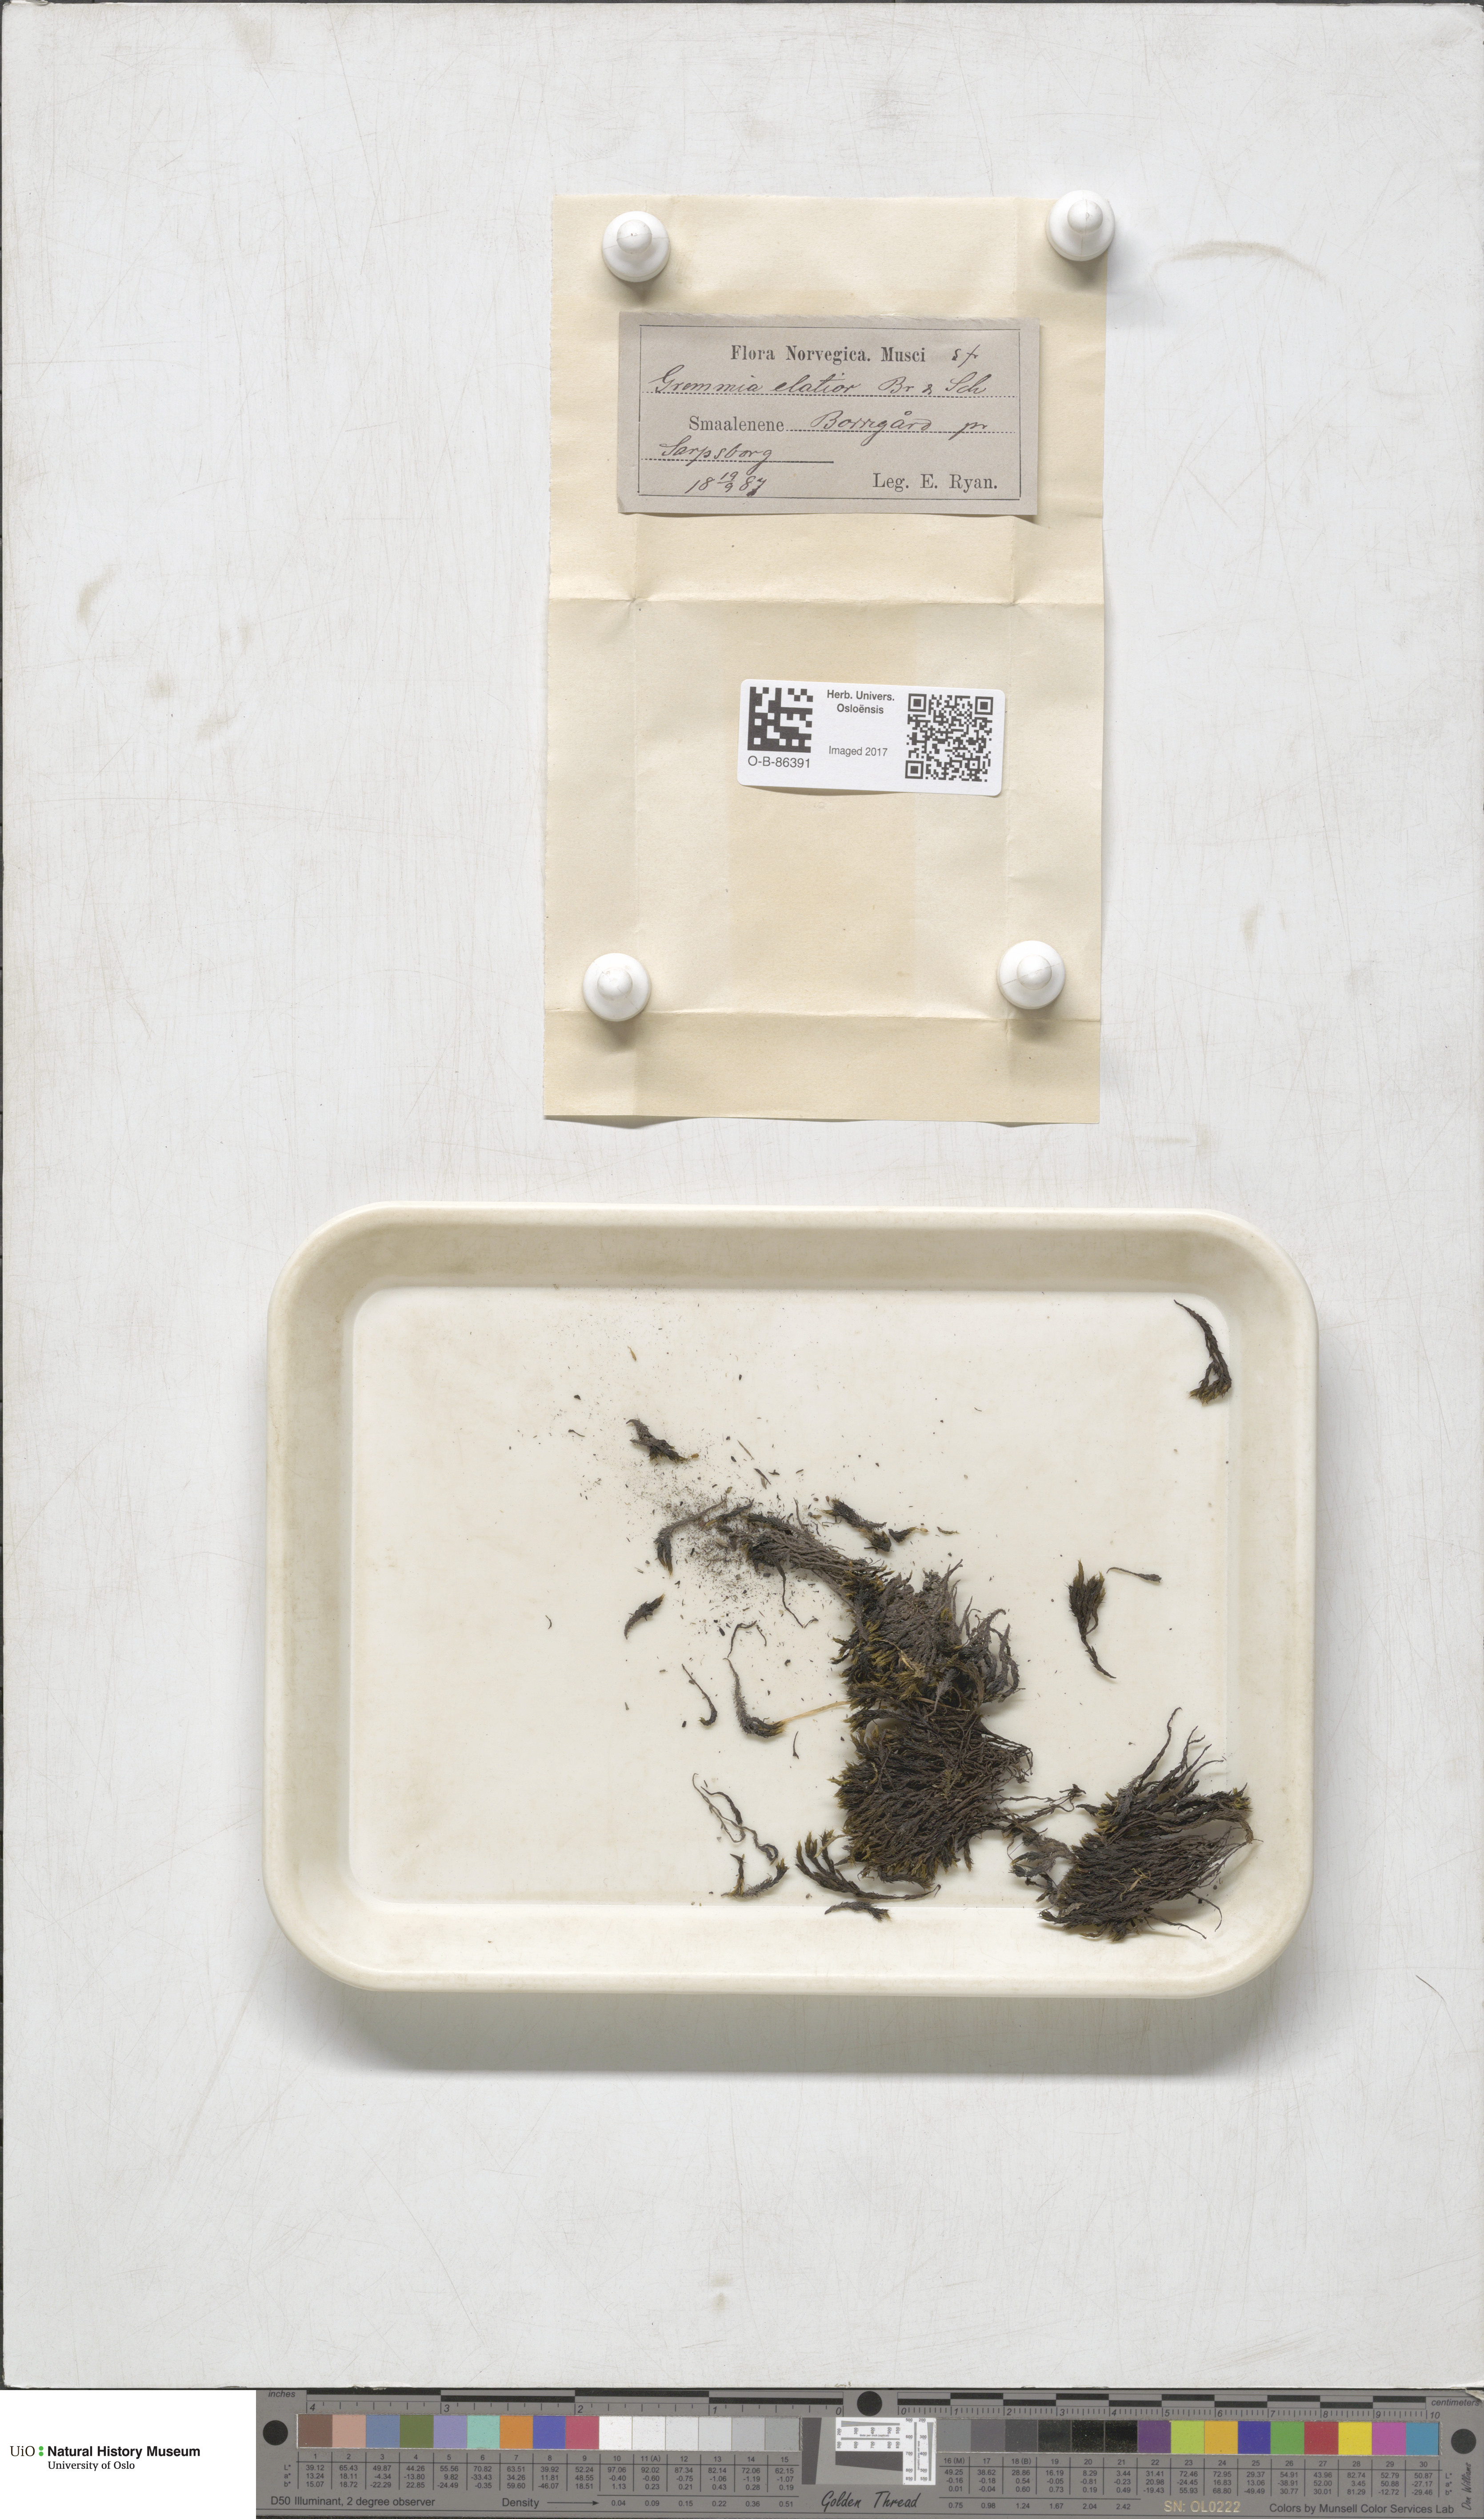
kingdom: Plantae
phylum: Bryophyta
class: Bryopsida
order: Grimmiales
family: Grimmiaceae
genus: Grimmia
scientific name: Grimmia elatior
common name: Large grimmia
